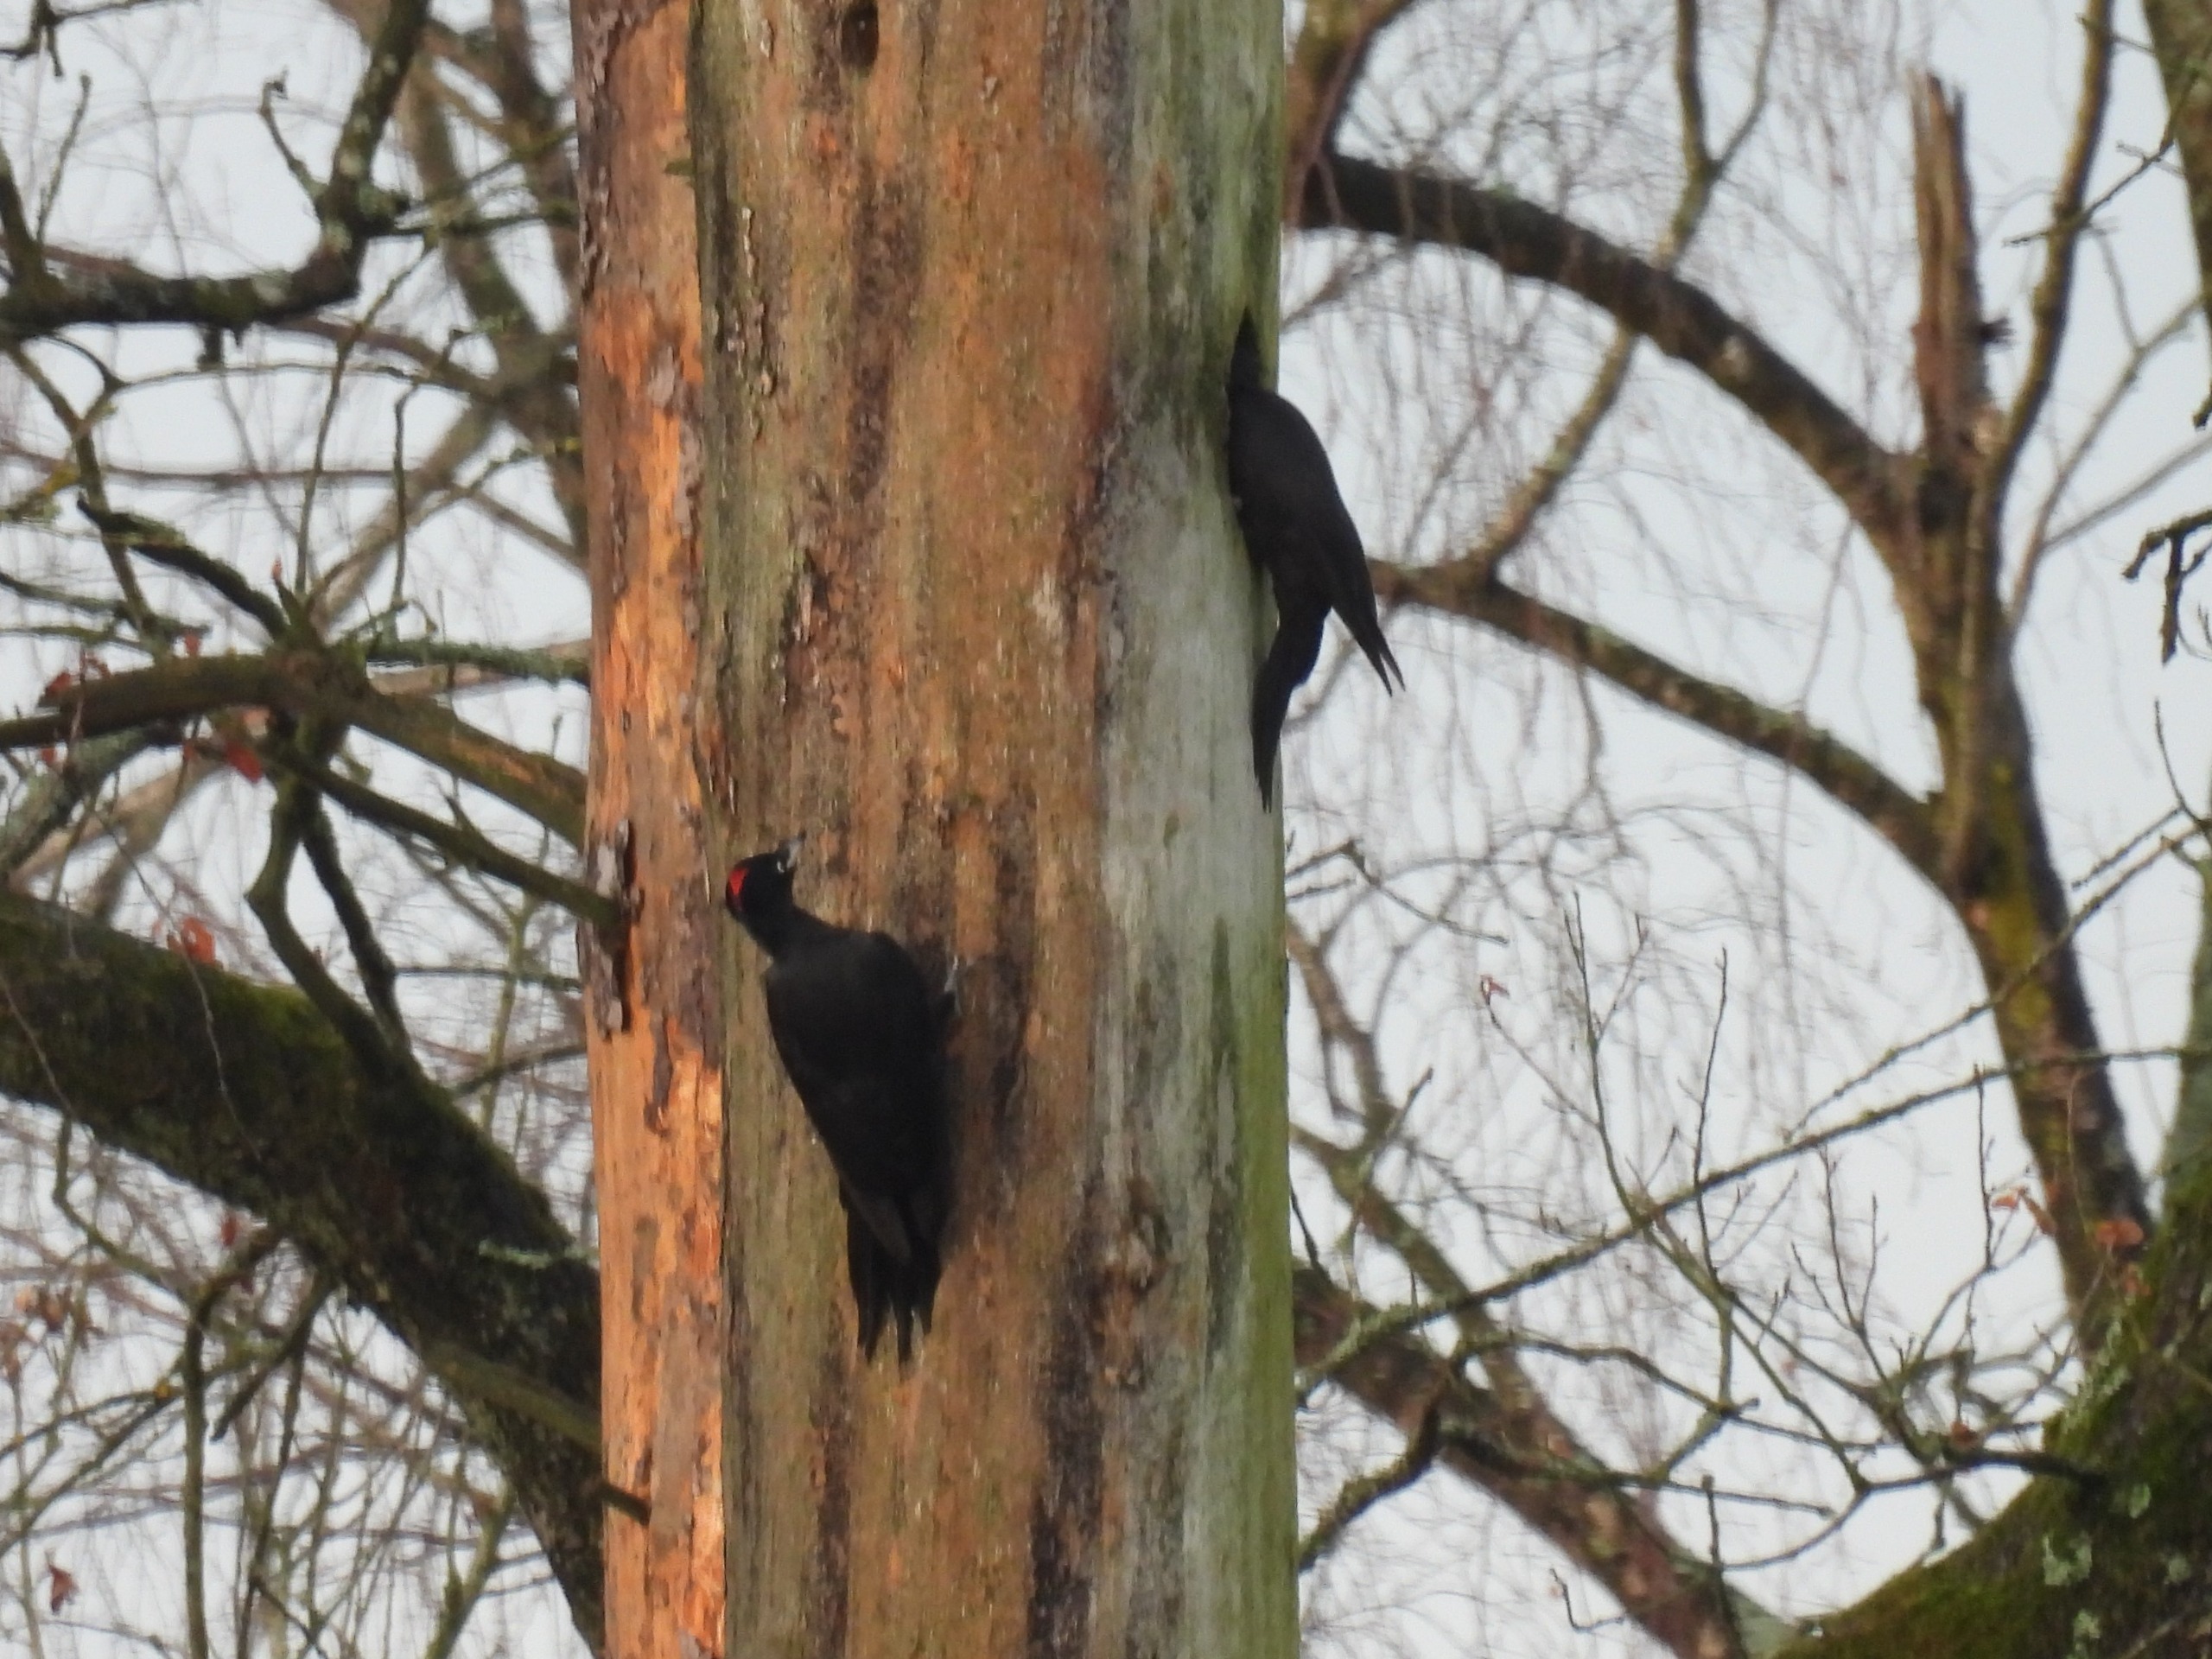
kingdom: Animalia
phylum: Chordata
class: Aves
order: Piciformes
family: Picidae
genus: Dryocopus
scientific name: Dryocopus martius
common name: Sortspætte
